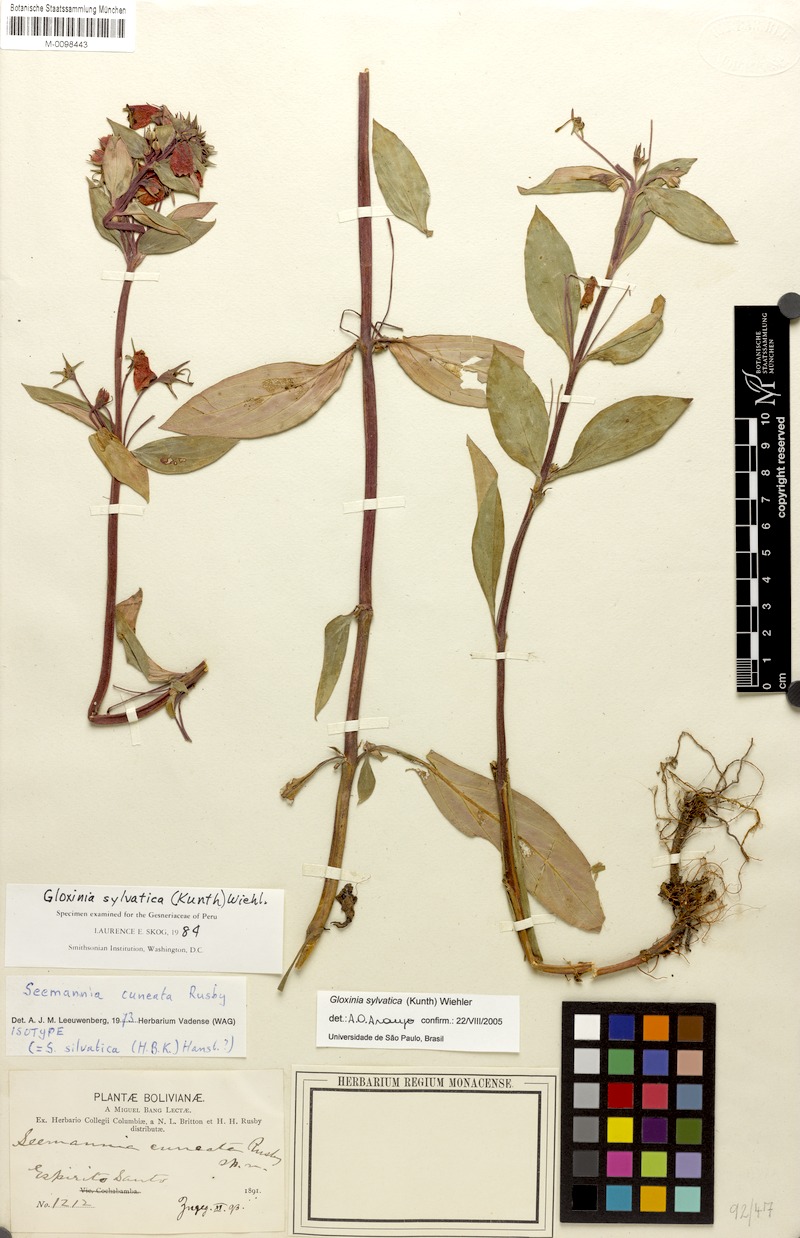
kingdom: Plantae
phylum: Tracheophyta
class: Magnoliopsida
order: Lamiales
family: Gesneriaceae
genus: Seemannia
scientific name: Seemannia sylvatica
